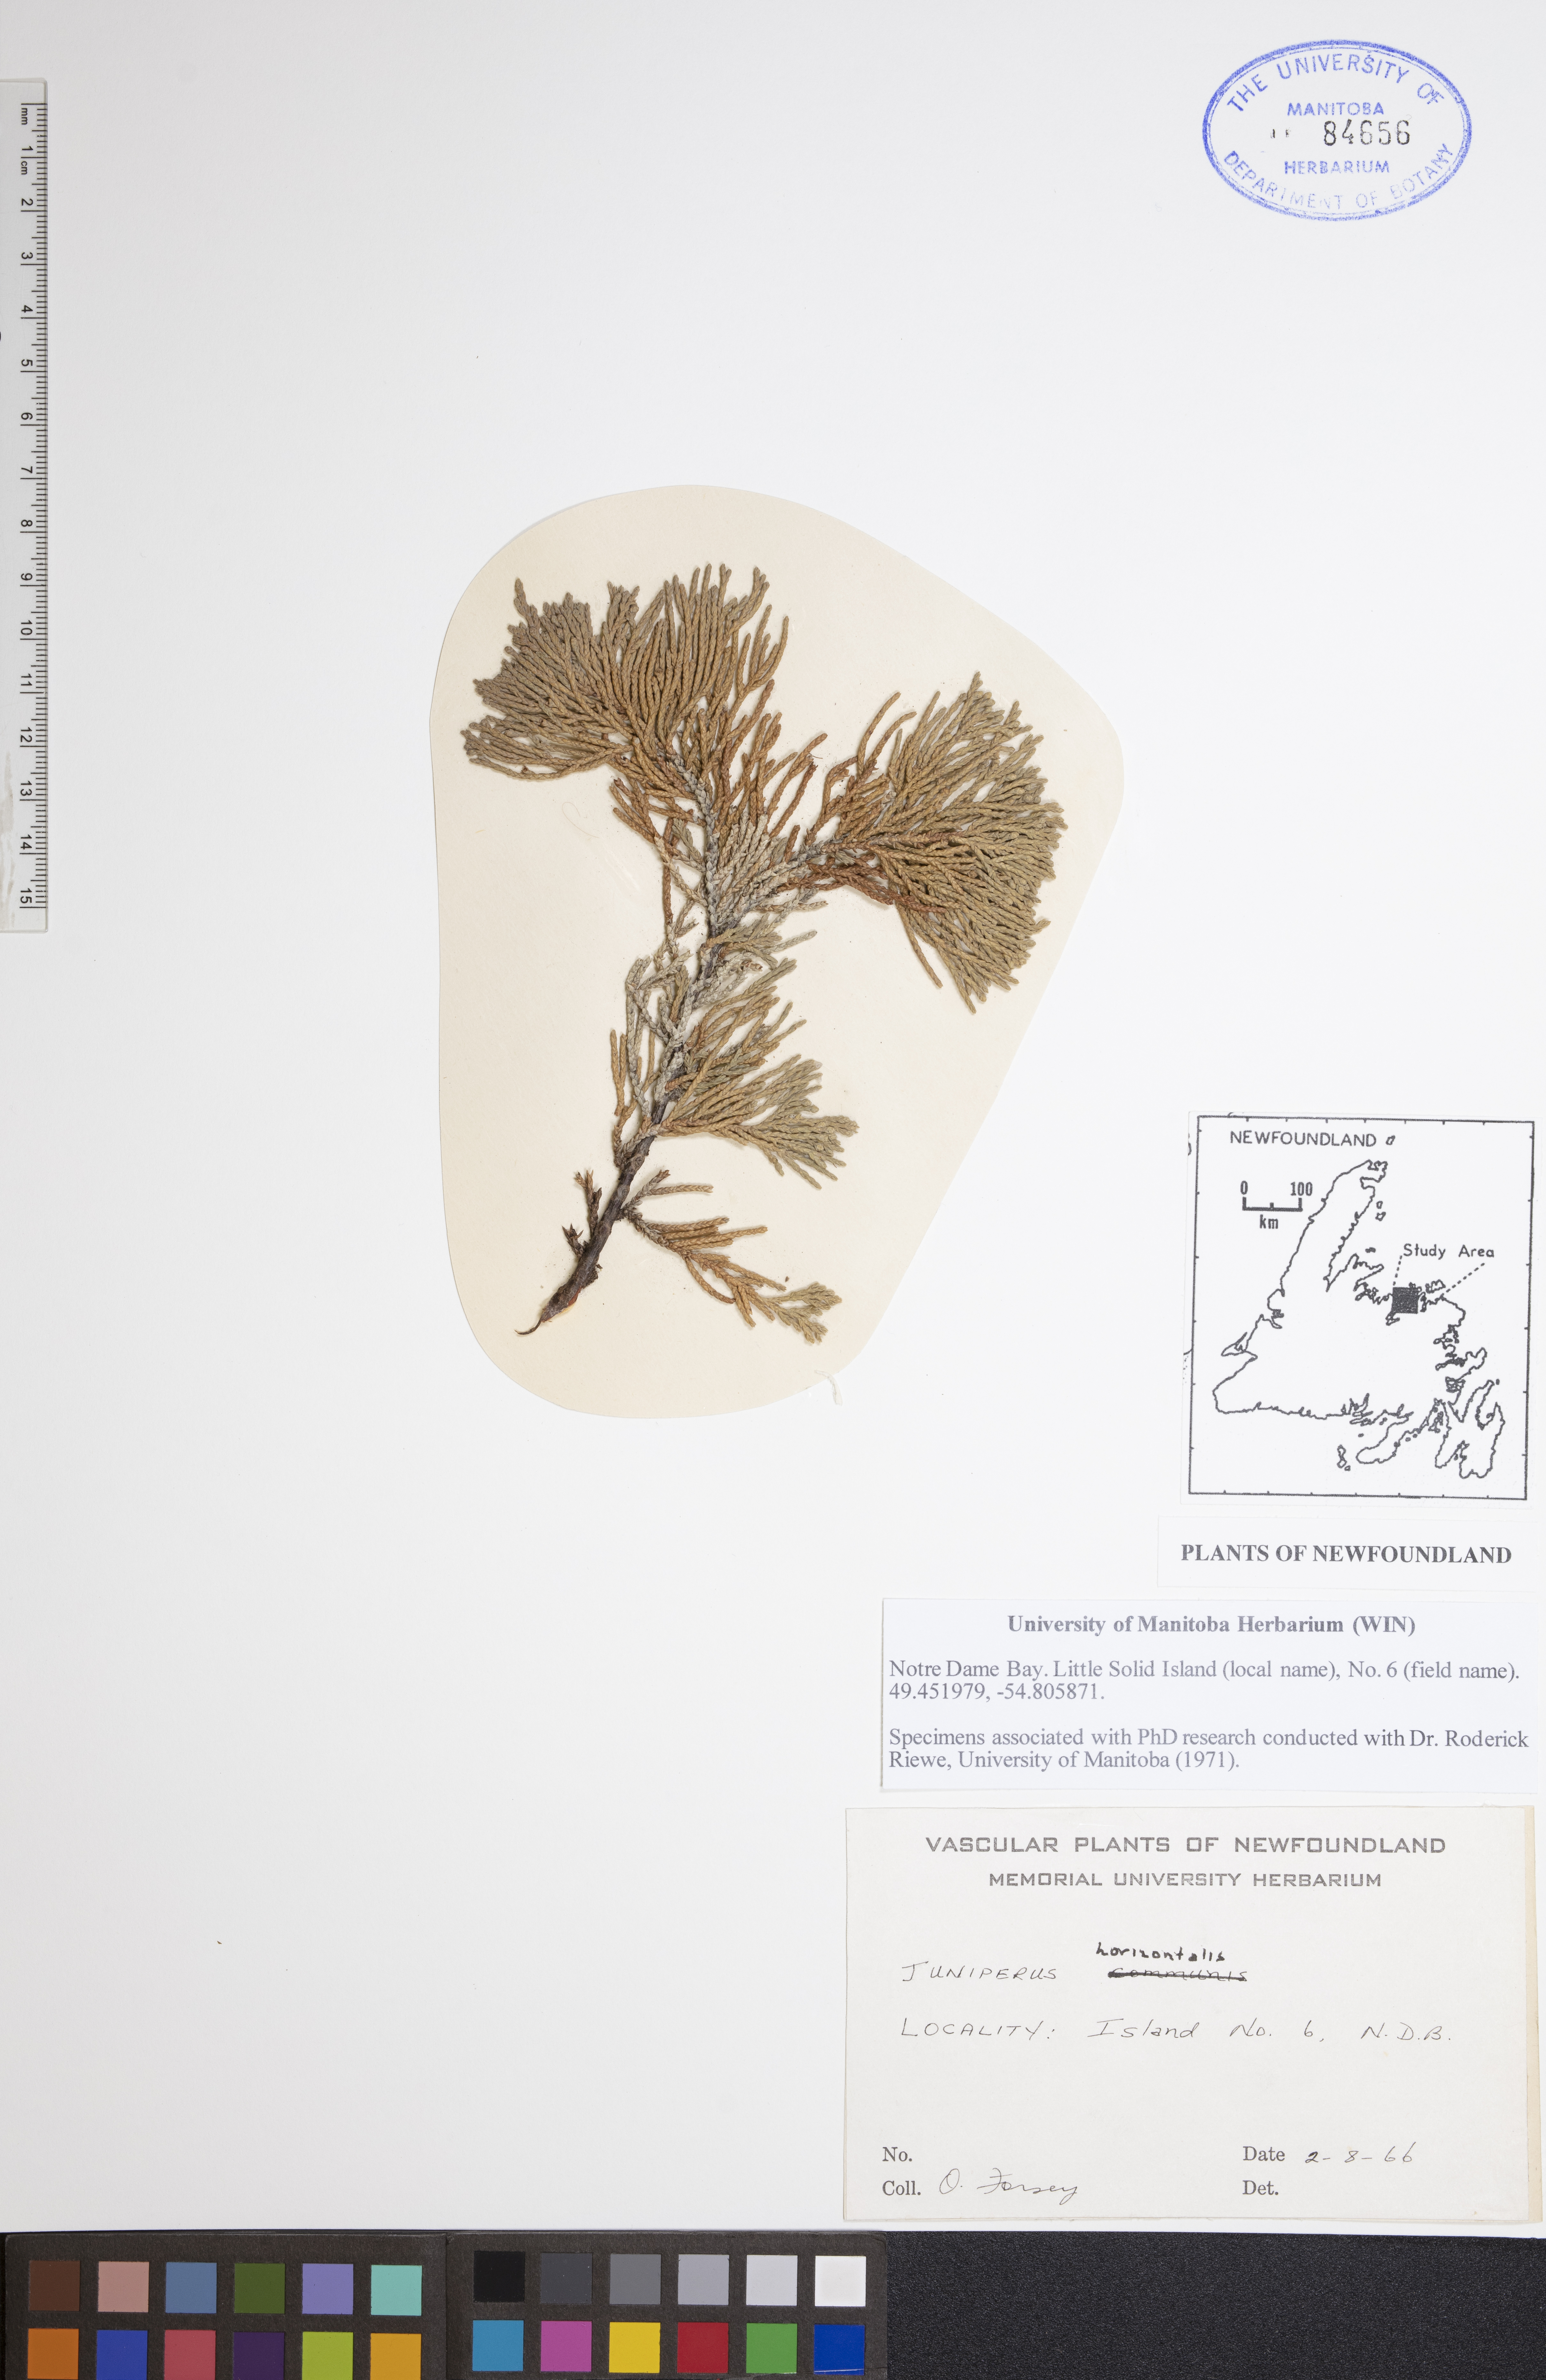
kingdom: Plantae
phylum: Tracheophyta
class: Pinopsida
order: Pinales
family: Cupressaceae
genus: Juniperus
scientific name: Juniperus horizontalis
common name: Creeping juniper
